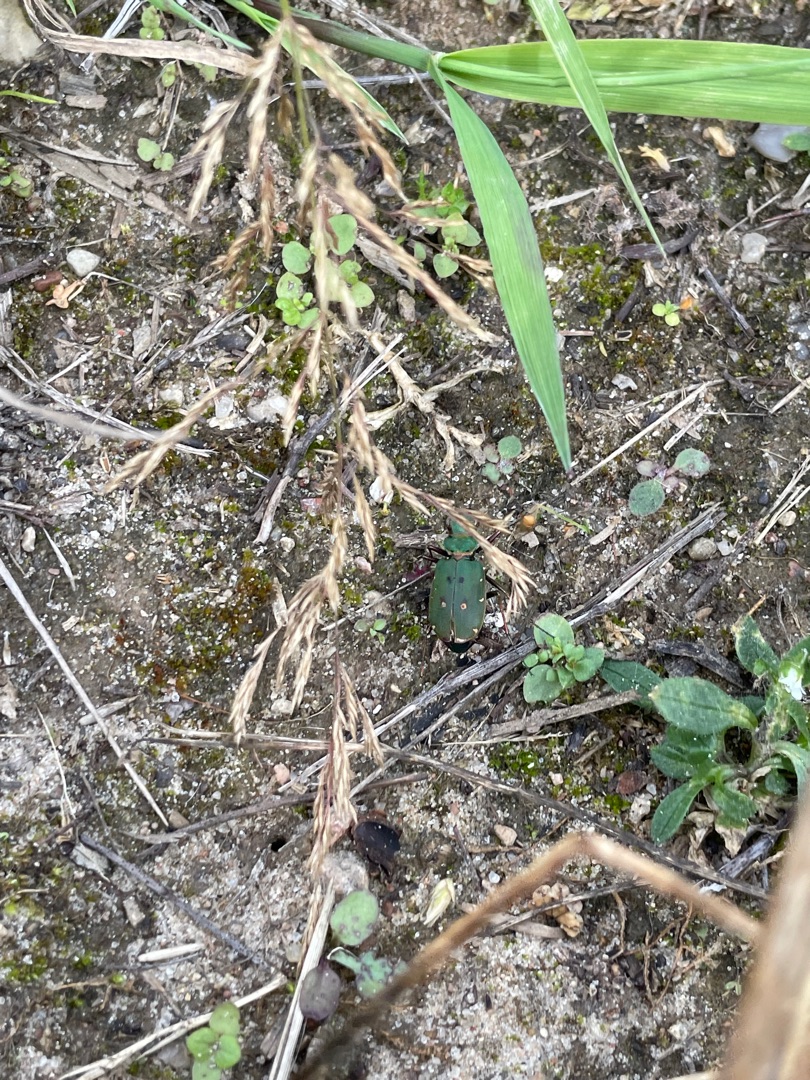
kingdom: Animalia
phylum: Arthropoda
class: Insecta
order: Coleoptera
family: Carabidae
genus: Cicindela
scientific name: Cicindela campestris
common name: Grøn sandspringer
